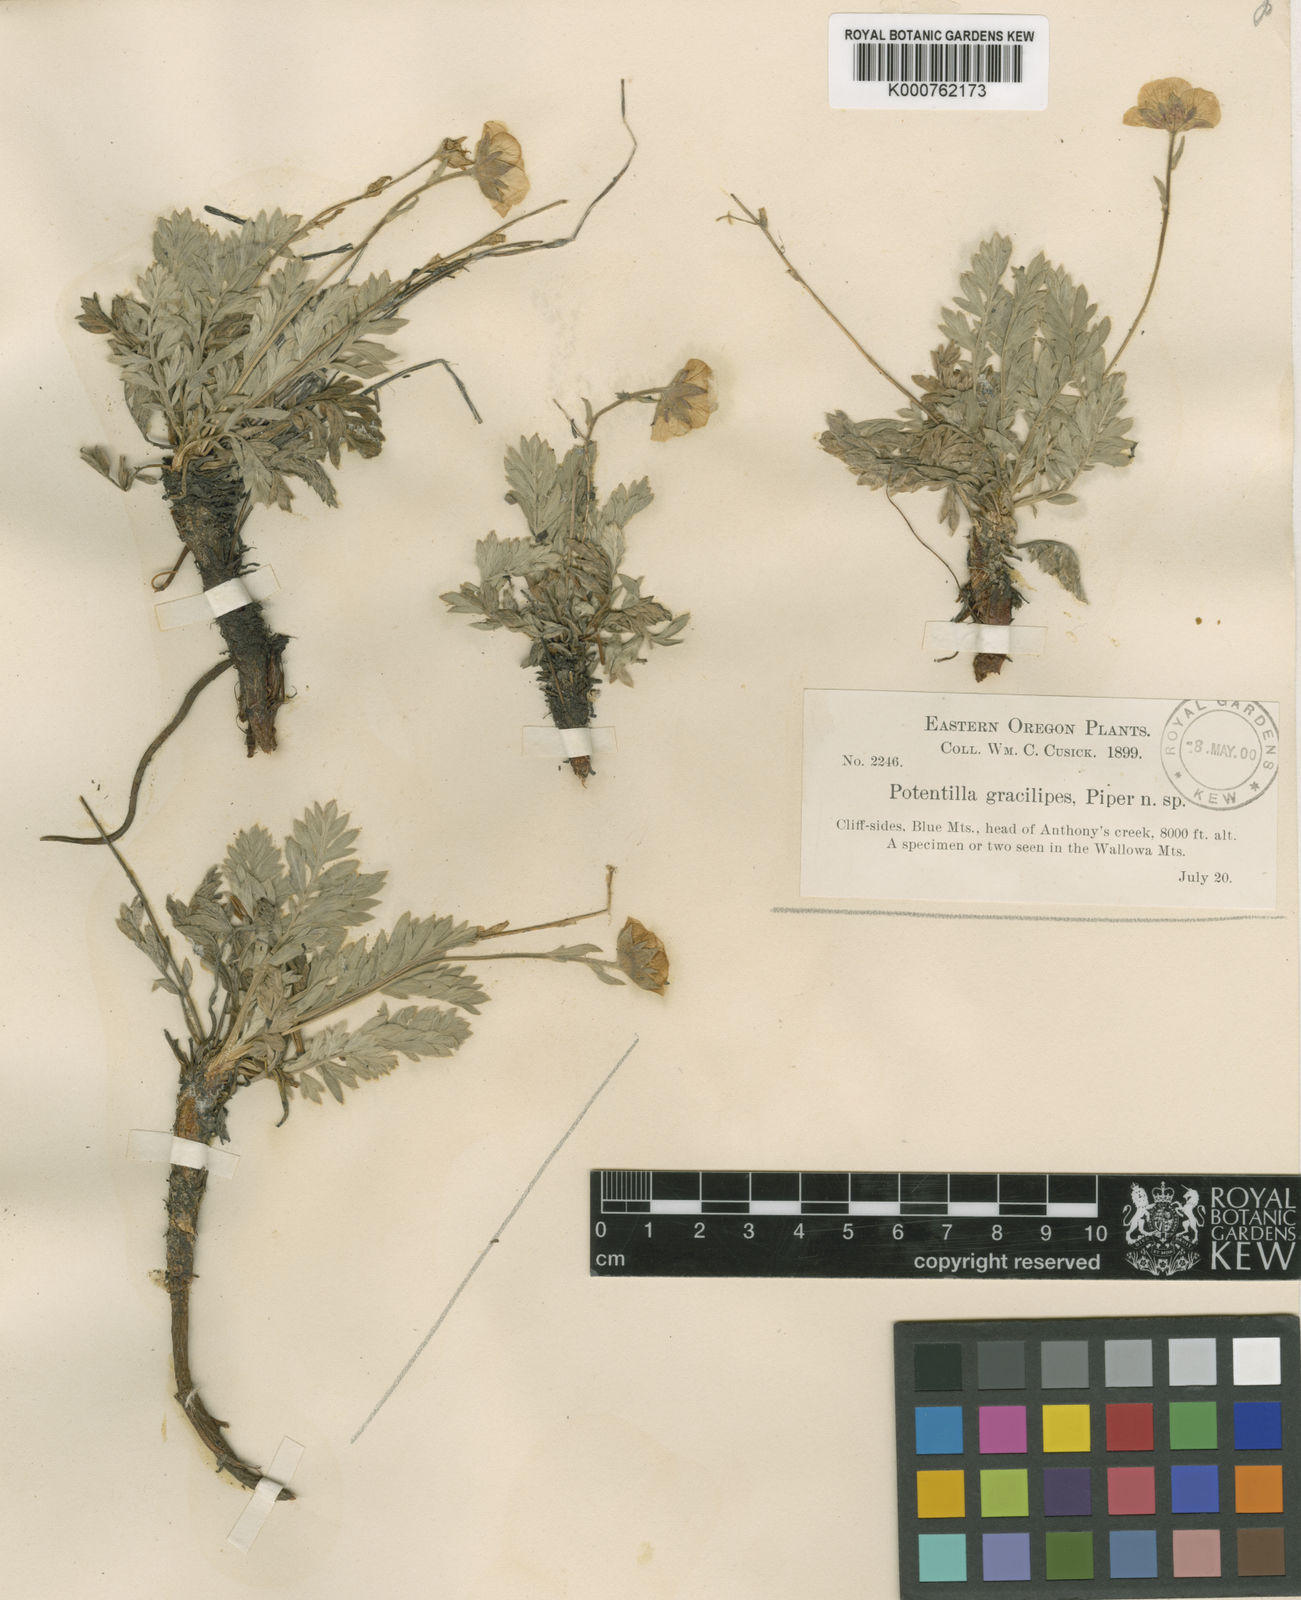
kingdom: Plantae
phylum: Tracheophyta
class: Magnoliopsida
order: Rosales
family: Rosaceae
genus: Geum
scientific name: Geum rossii
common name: Alpine avens
